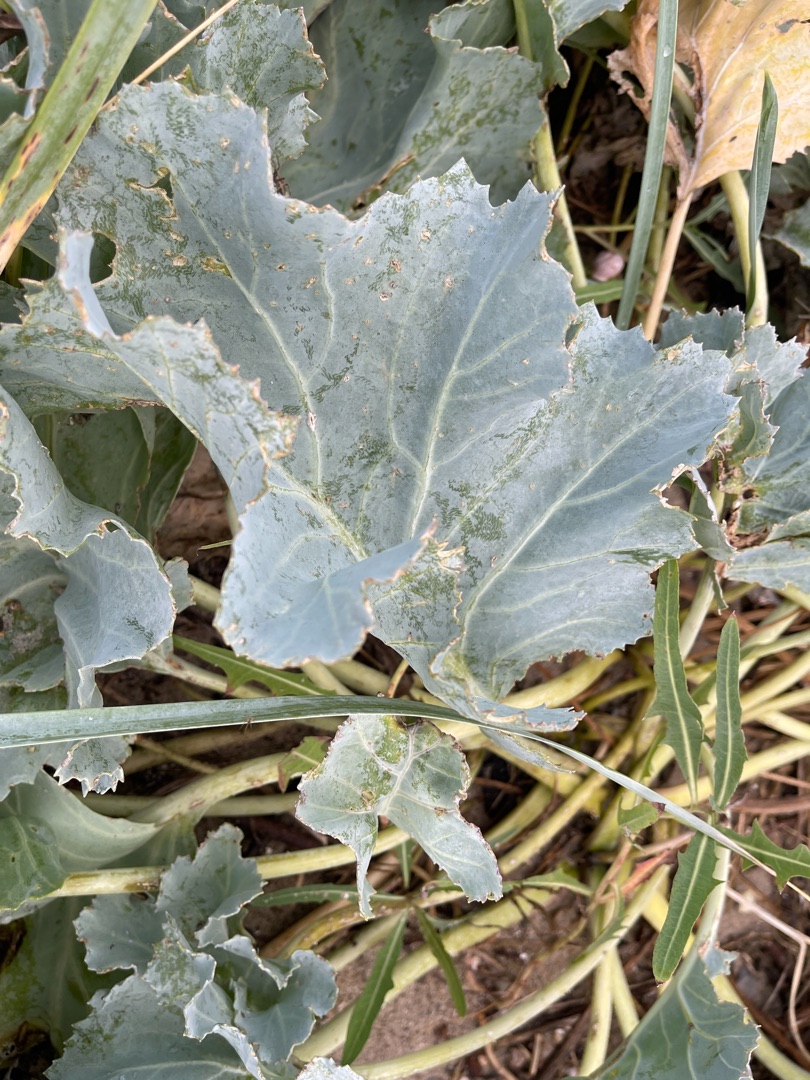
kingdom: Plantae
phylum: Tracheophyta
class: Magnoliopsida
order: Brassicales
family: Brassicaceae
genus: Crambe
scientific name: Crambe maritima
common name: Strandkål
